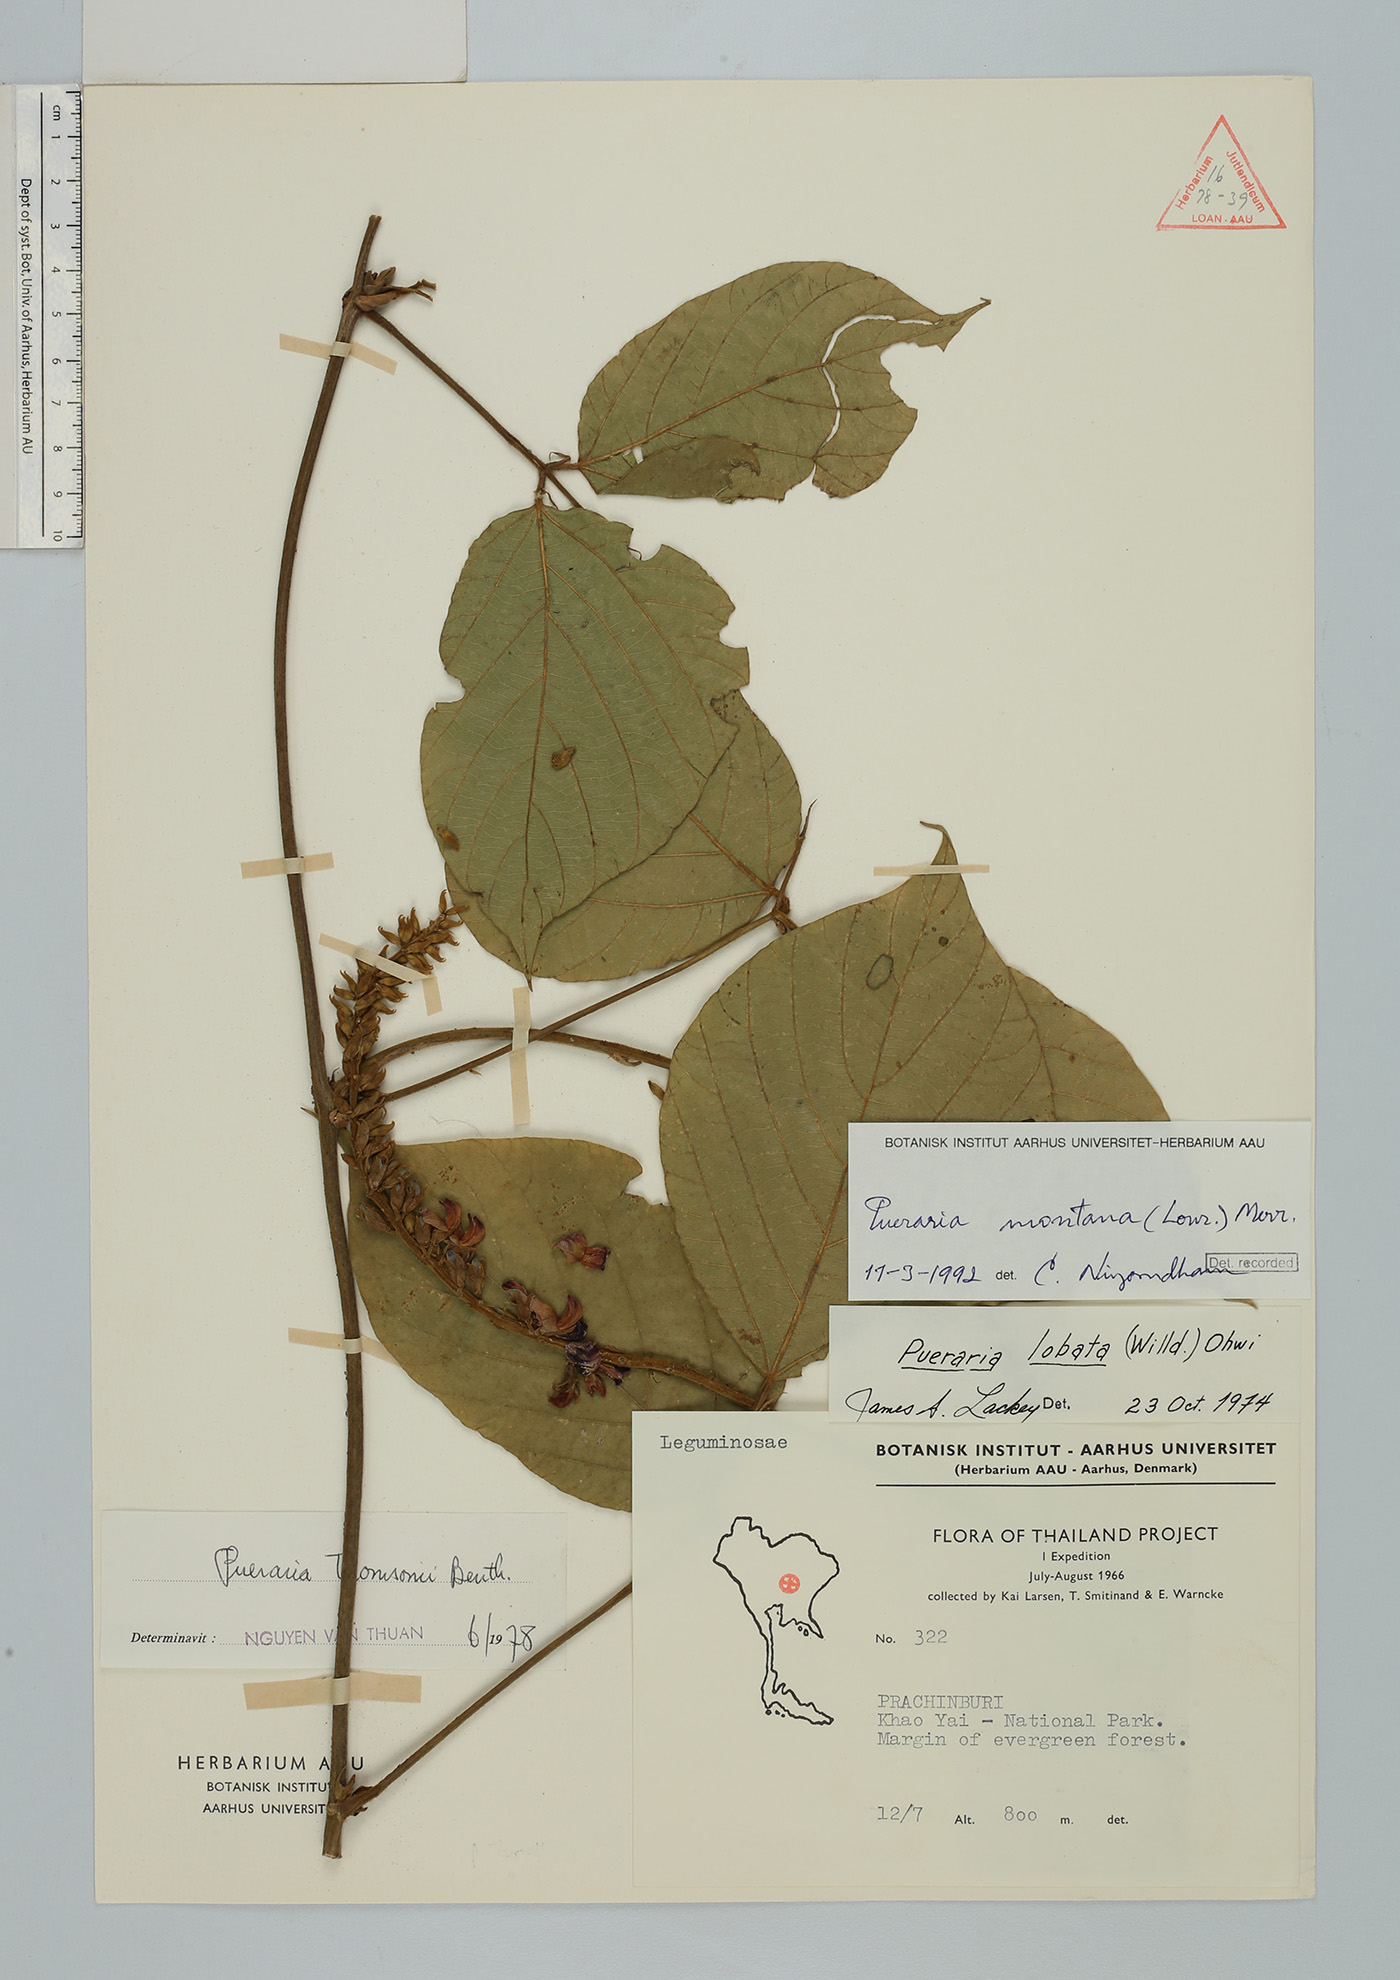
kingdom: Plantae
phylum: Tracheophyta
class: Magnoliopsida
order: Fabales
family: Fabaceae
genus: Pueraria
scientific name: Pueraria montana
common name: Kudzu
